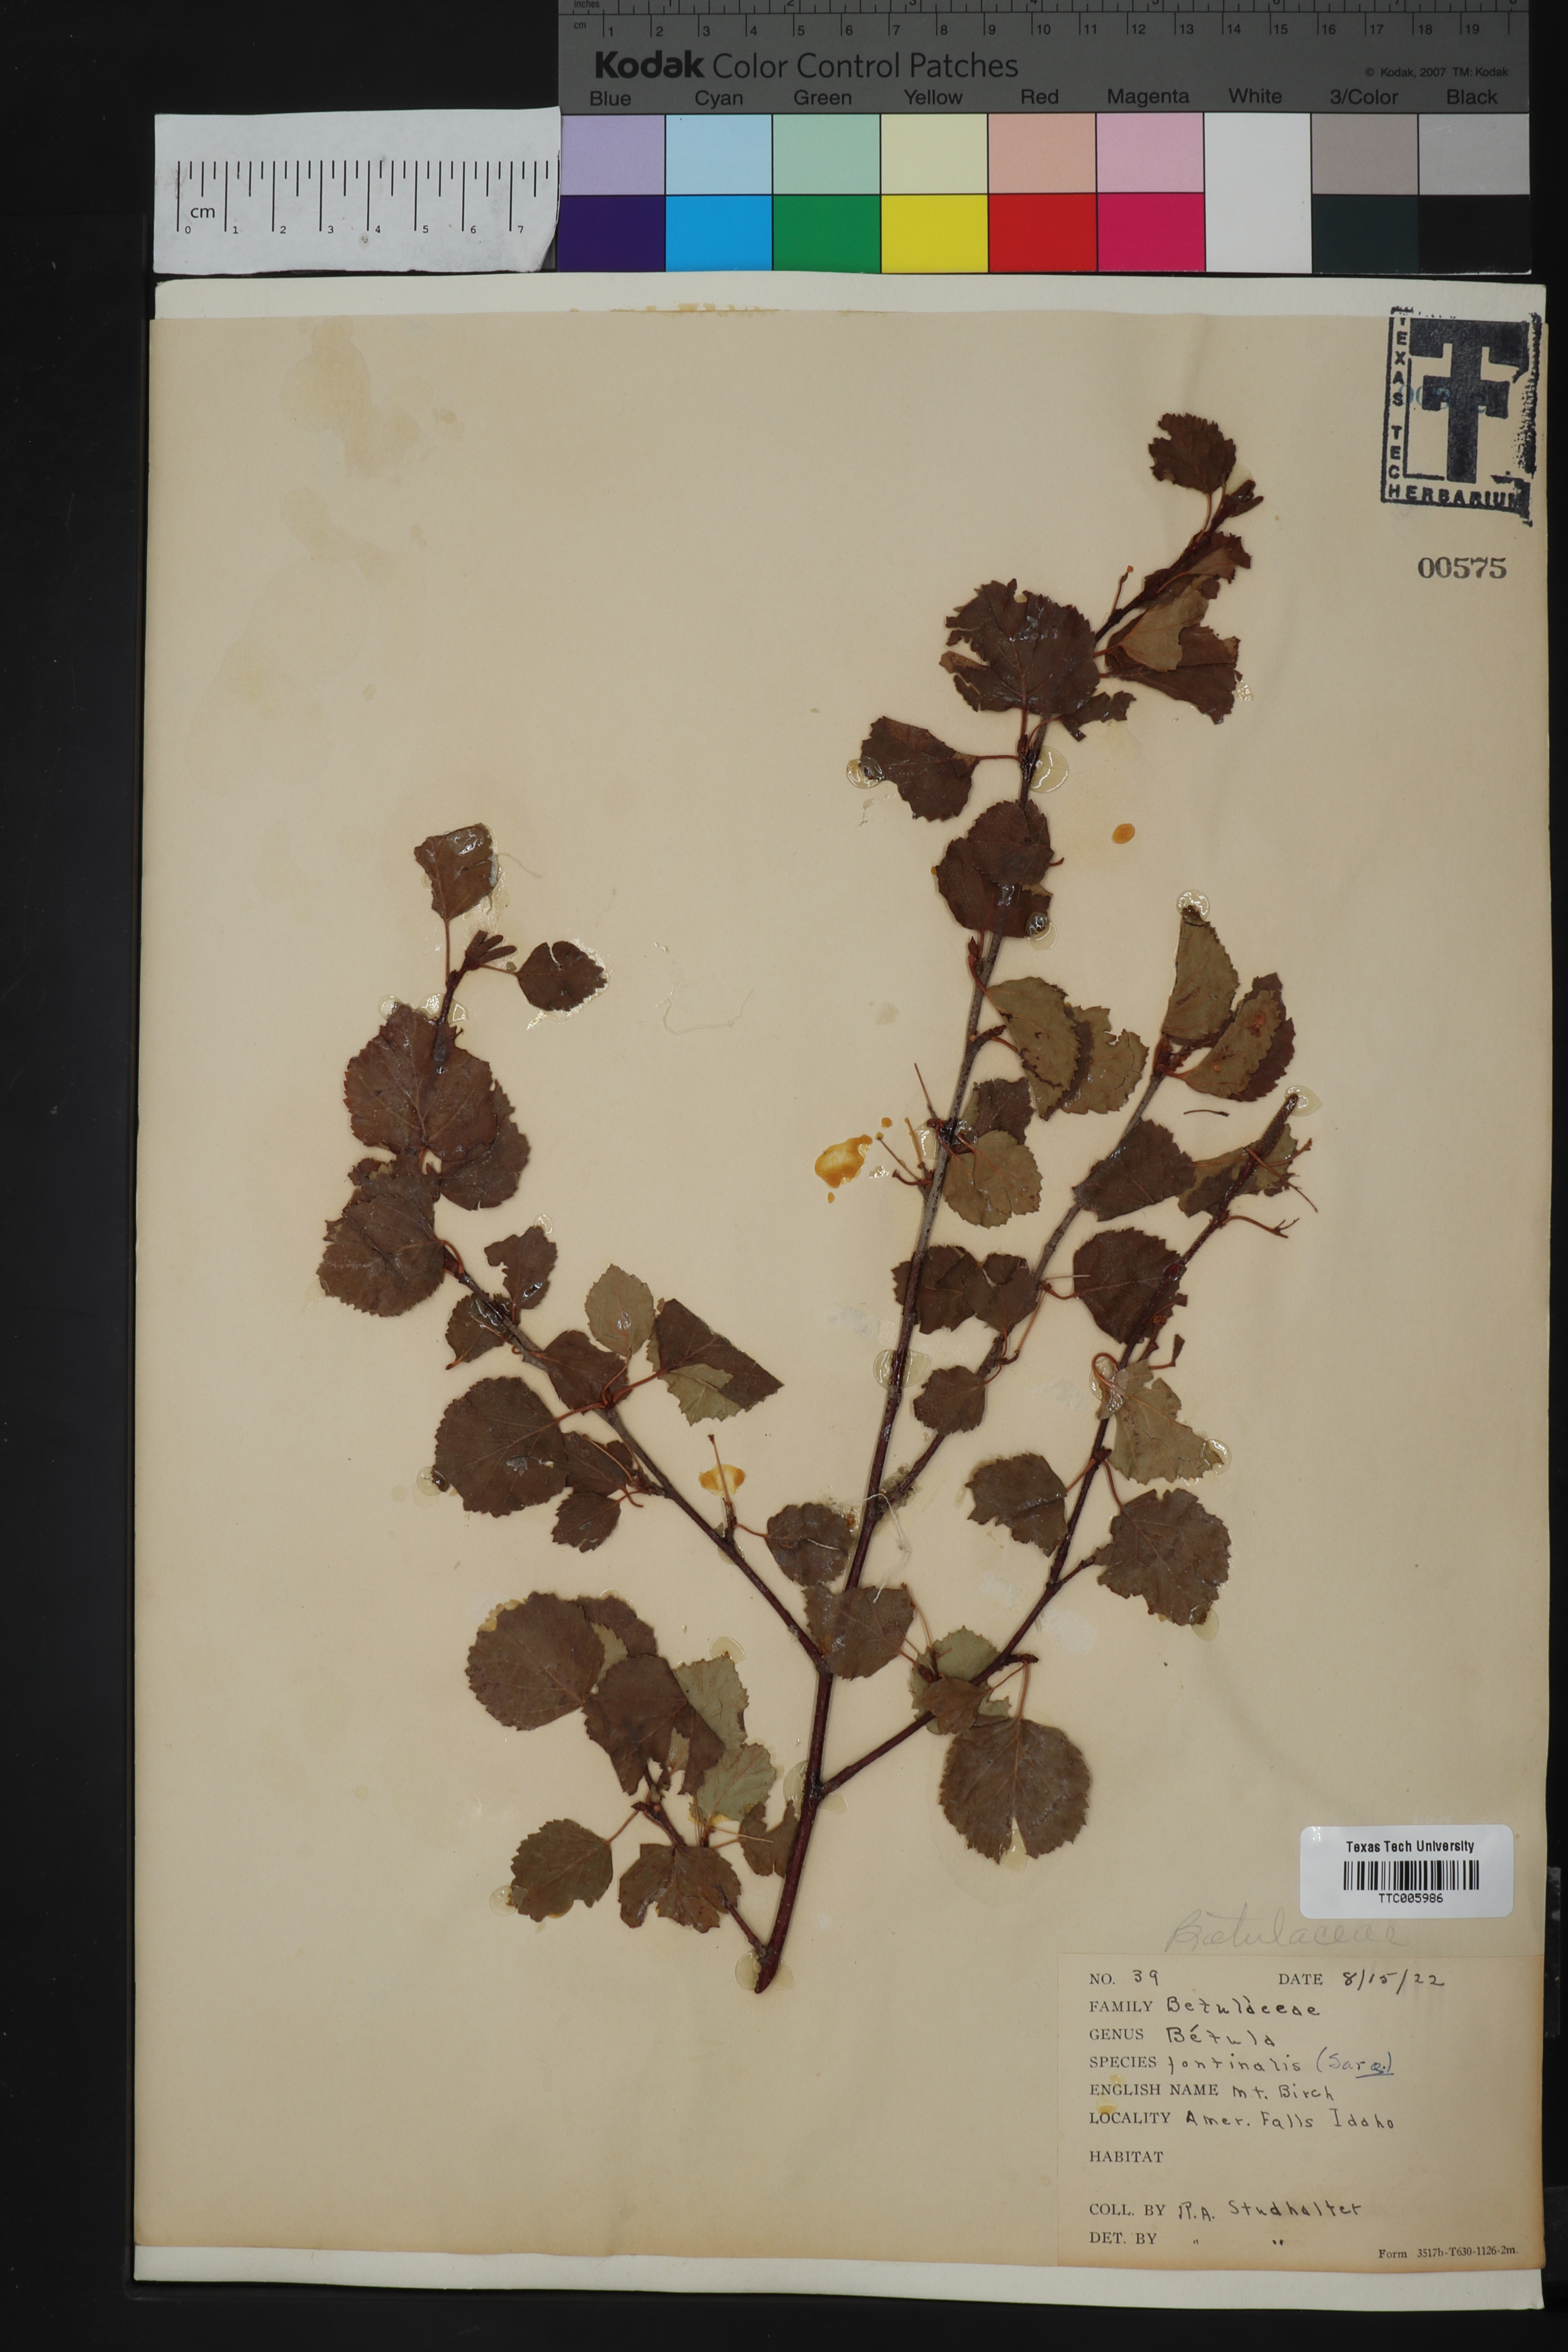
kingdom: Plantae
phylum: Tracheophyta
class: Magnoliopsida
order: Fagales
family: Betulaceae
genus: Betula
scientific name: Betula occidentalis
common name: River birch
